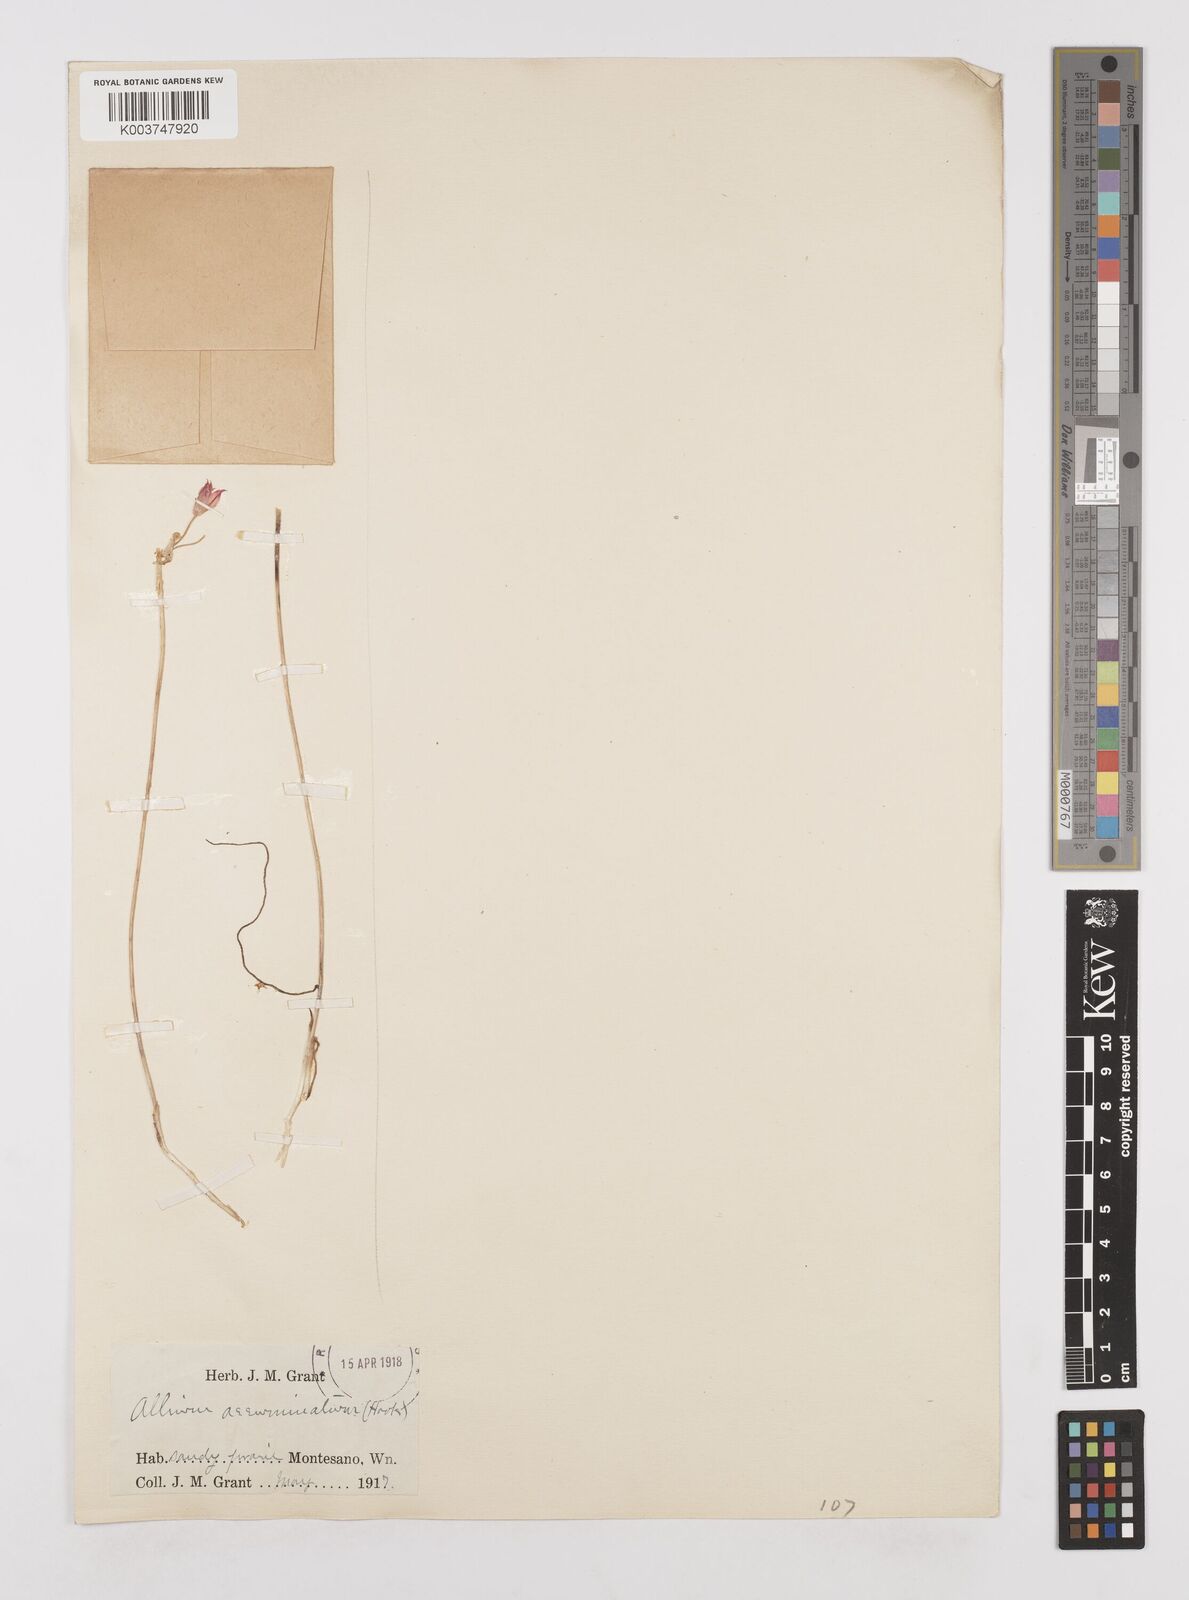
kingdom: Plantae
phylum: Tracheophyta
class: Liliopsida
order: Asparagales
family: Amaryllidaceae
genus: Allium
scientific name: Allium acuminatum
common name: Hooker's onion
